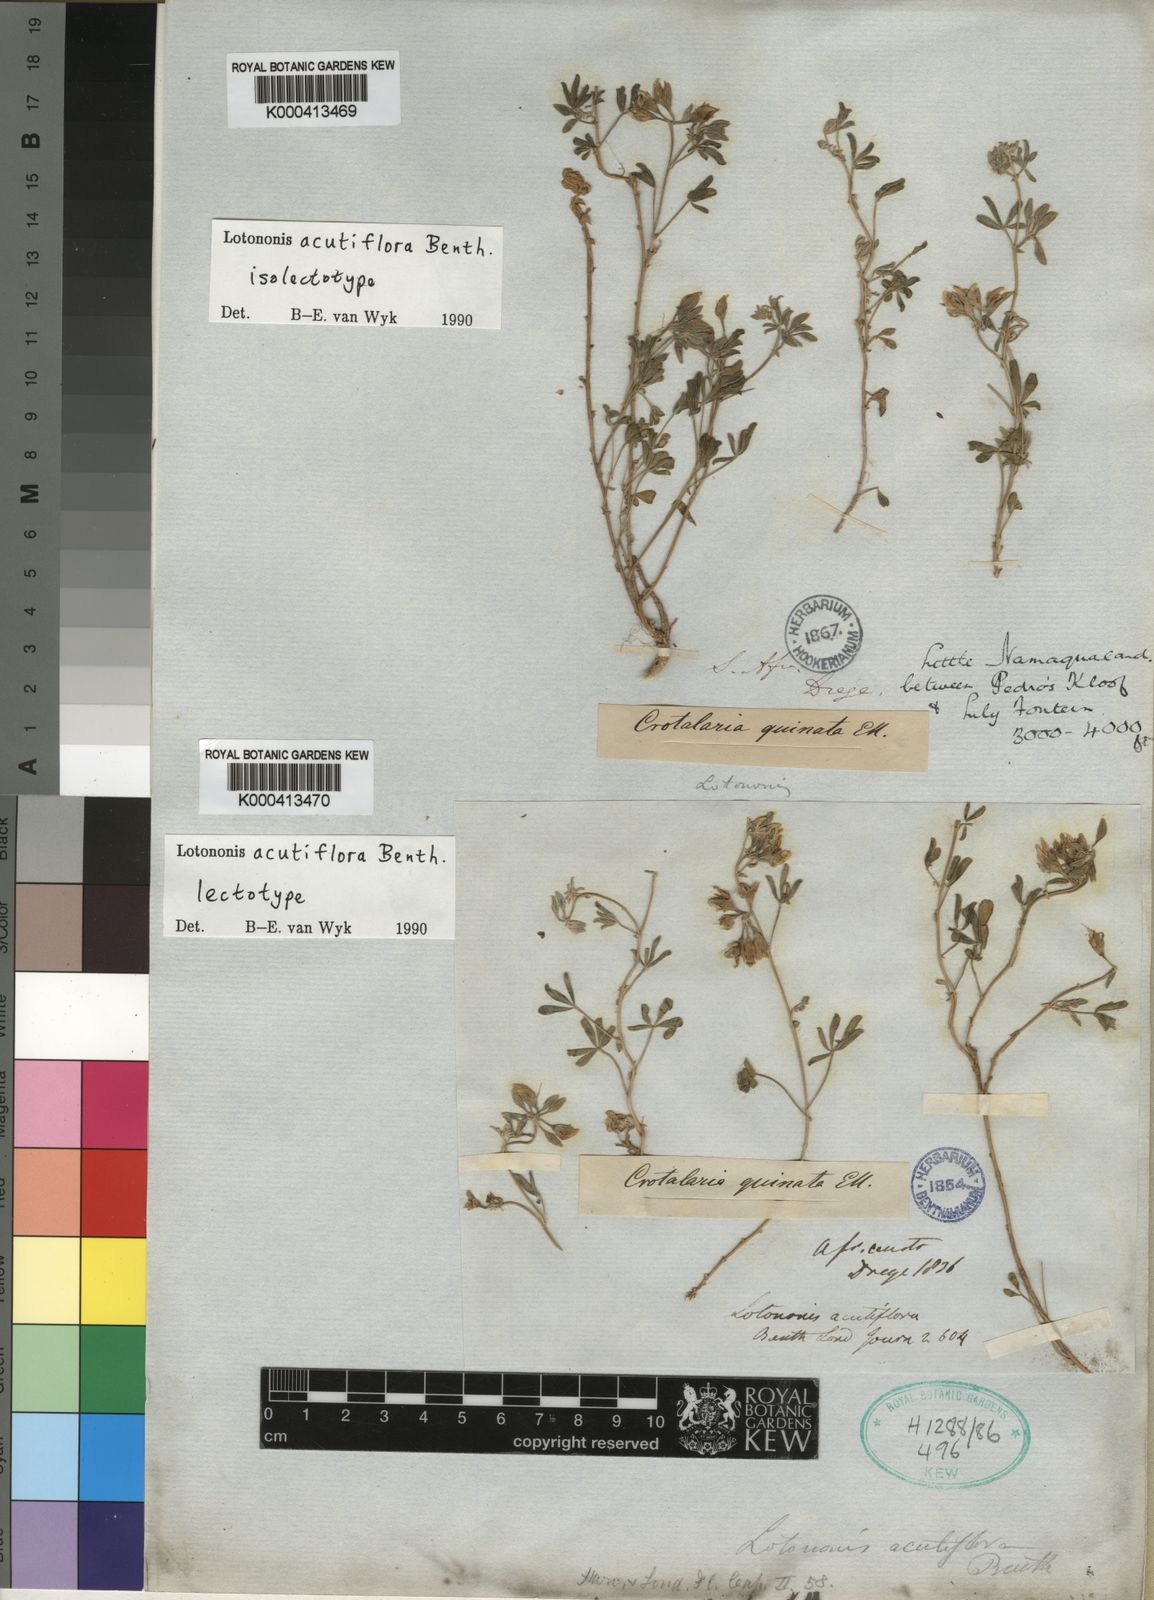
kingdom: Plantae
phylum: Tracheophyta
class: Magnoliopsida
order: Fabales
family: Fabaceae
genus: Lotononis
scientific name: Lotononis acutiflora
